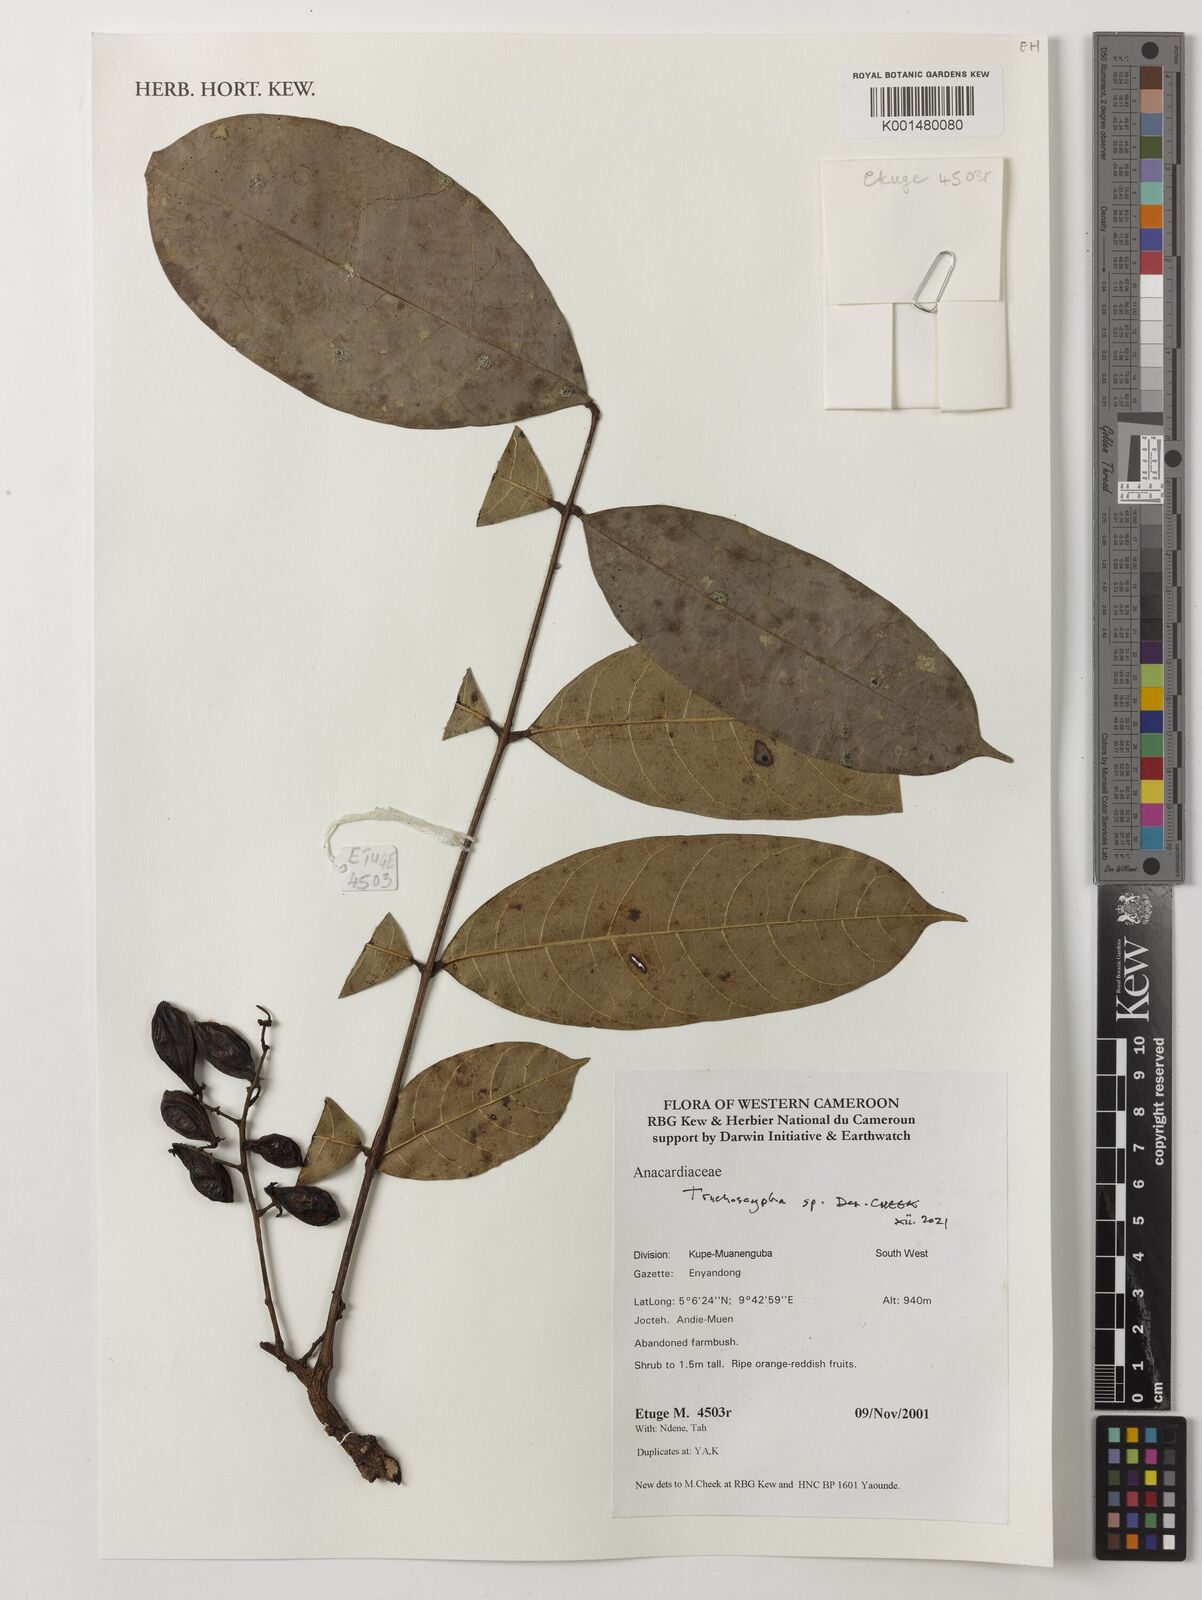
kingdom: Plantae
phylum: Tracheophyta
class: Magnoliopsida
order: Sapindales
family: Anacardiaceae
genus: Trichoscypha
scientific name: Trichoscypha
